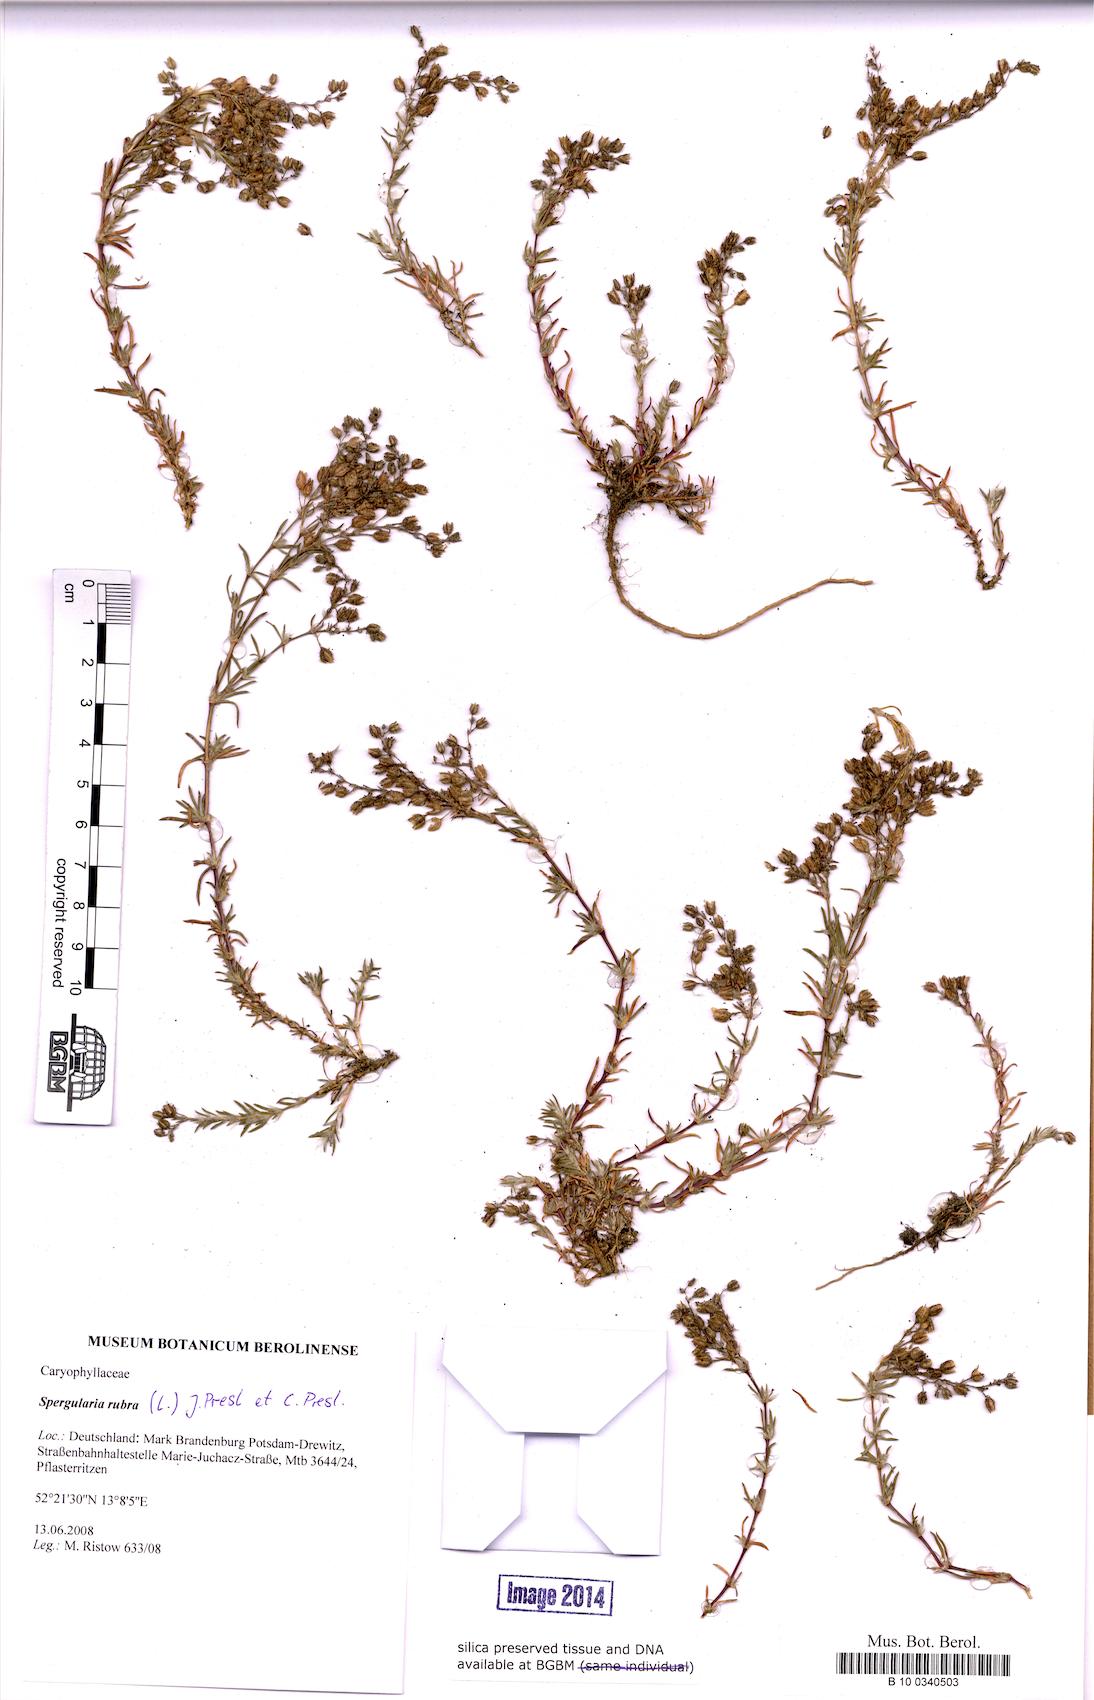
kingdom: Plantae
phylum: Tracheophyta
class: Magnoliopsida
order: Caryophyllales
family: Caryophyllaceae
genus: Spergularia
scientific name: Spergularia rubra
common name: Red sand-spurrey
